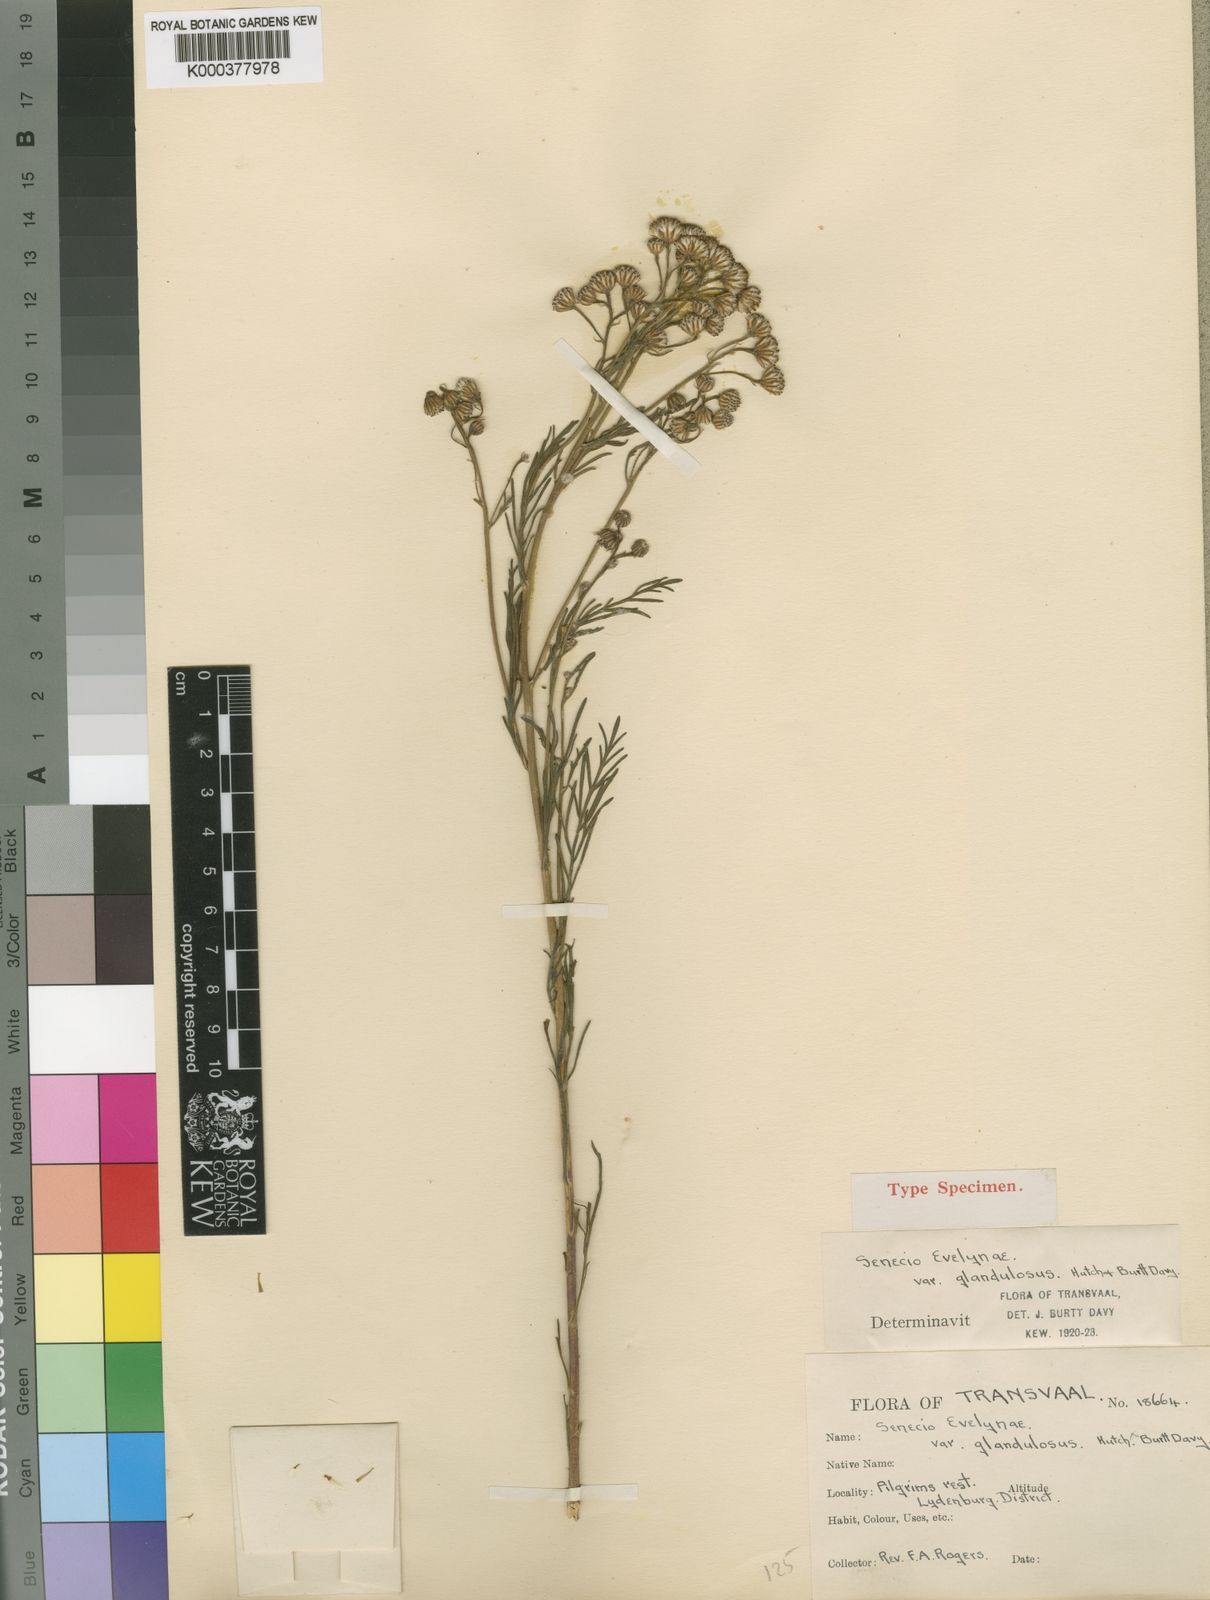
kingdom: Plantae
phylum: Tracheophyta
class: Magnoliopsida
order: Asterales
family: Asteraceae
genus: Senecio
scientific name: Senecio evelynae
